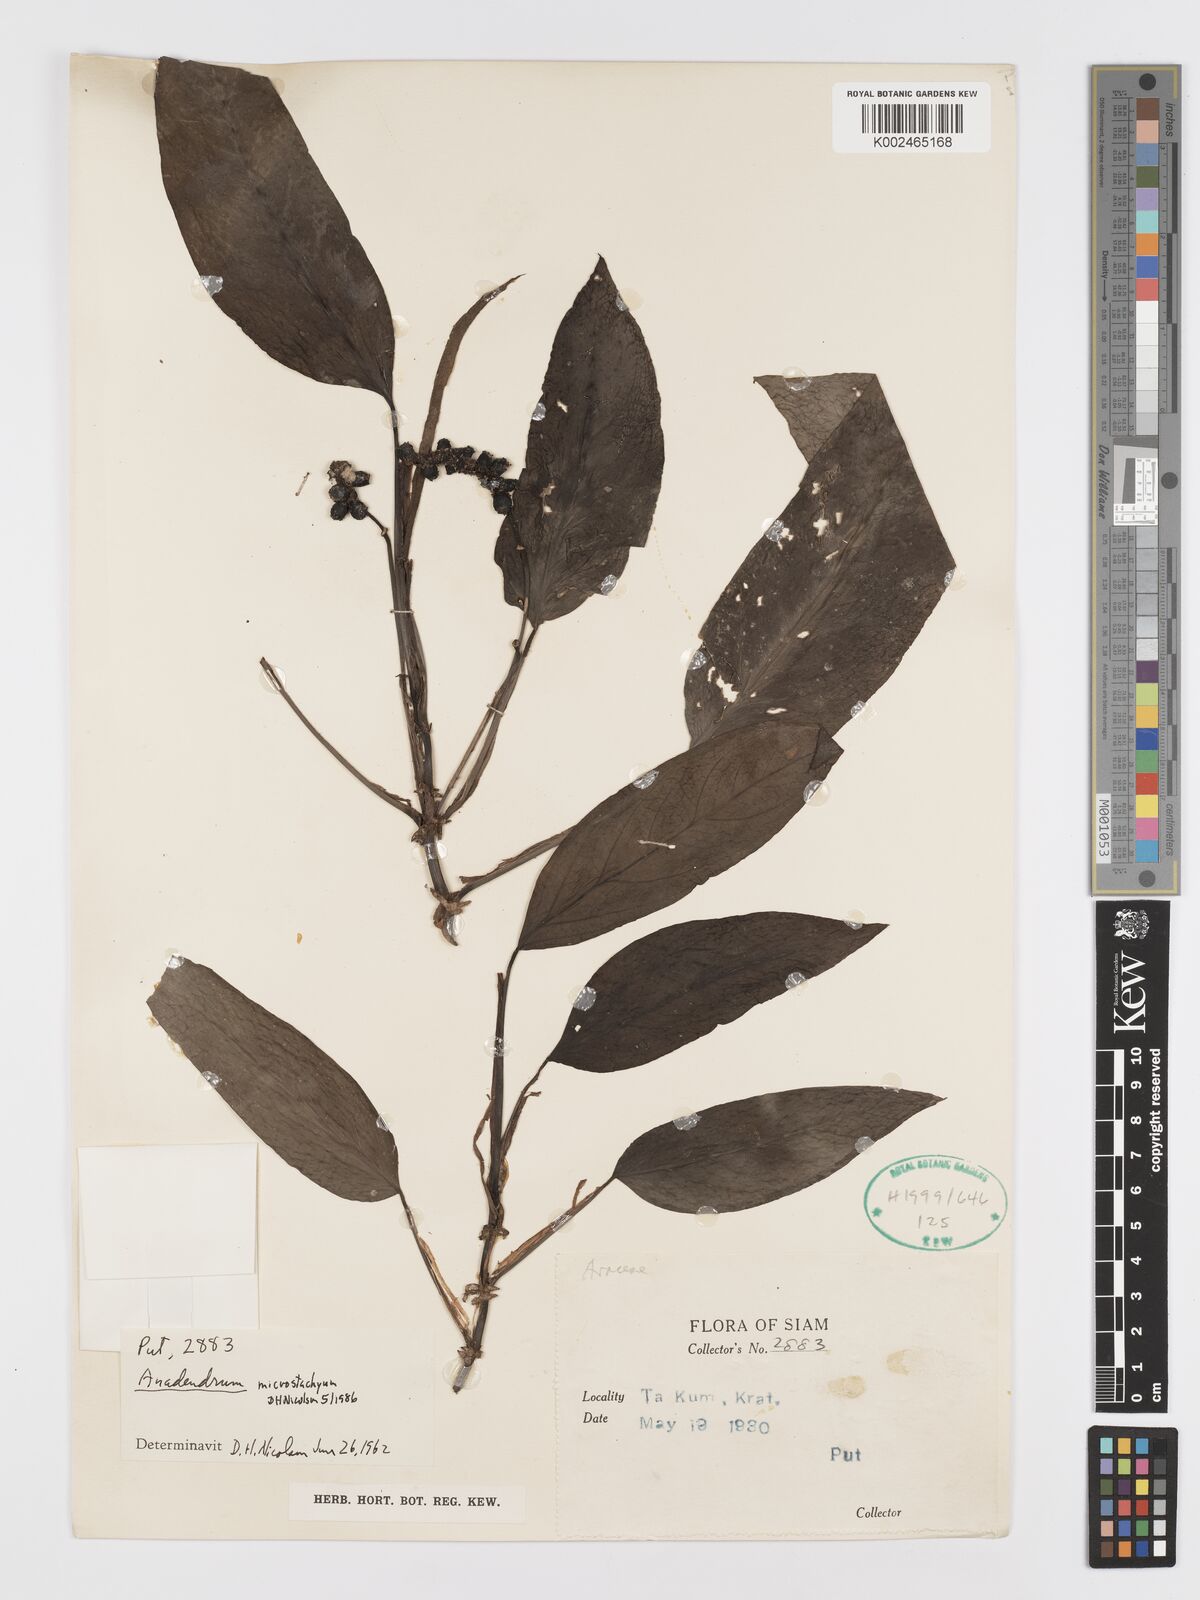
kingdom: Plantae
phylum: Tracheophyta
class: Liliopsida
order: Alismatales
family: Araceae
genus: Anadendrum
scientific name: Anadendrum microstachyum
